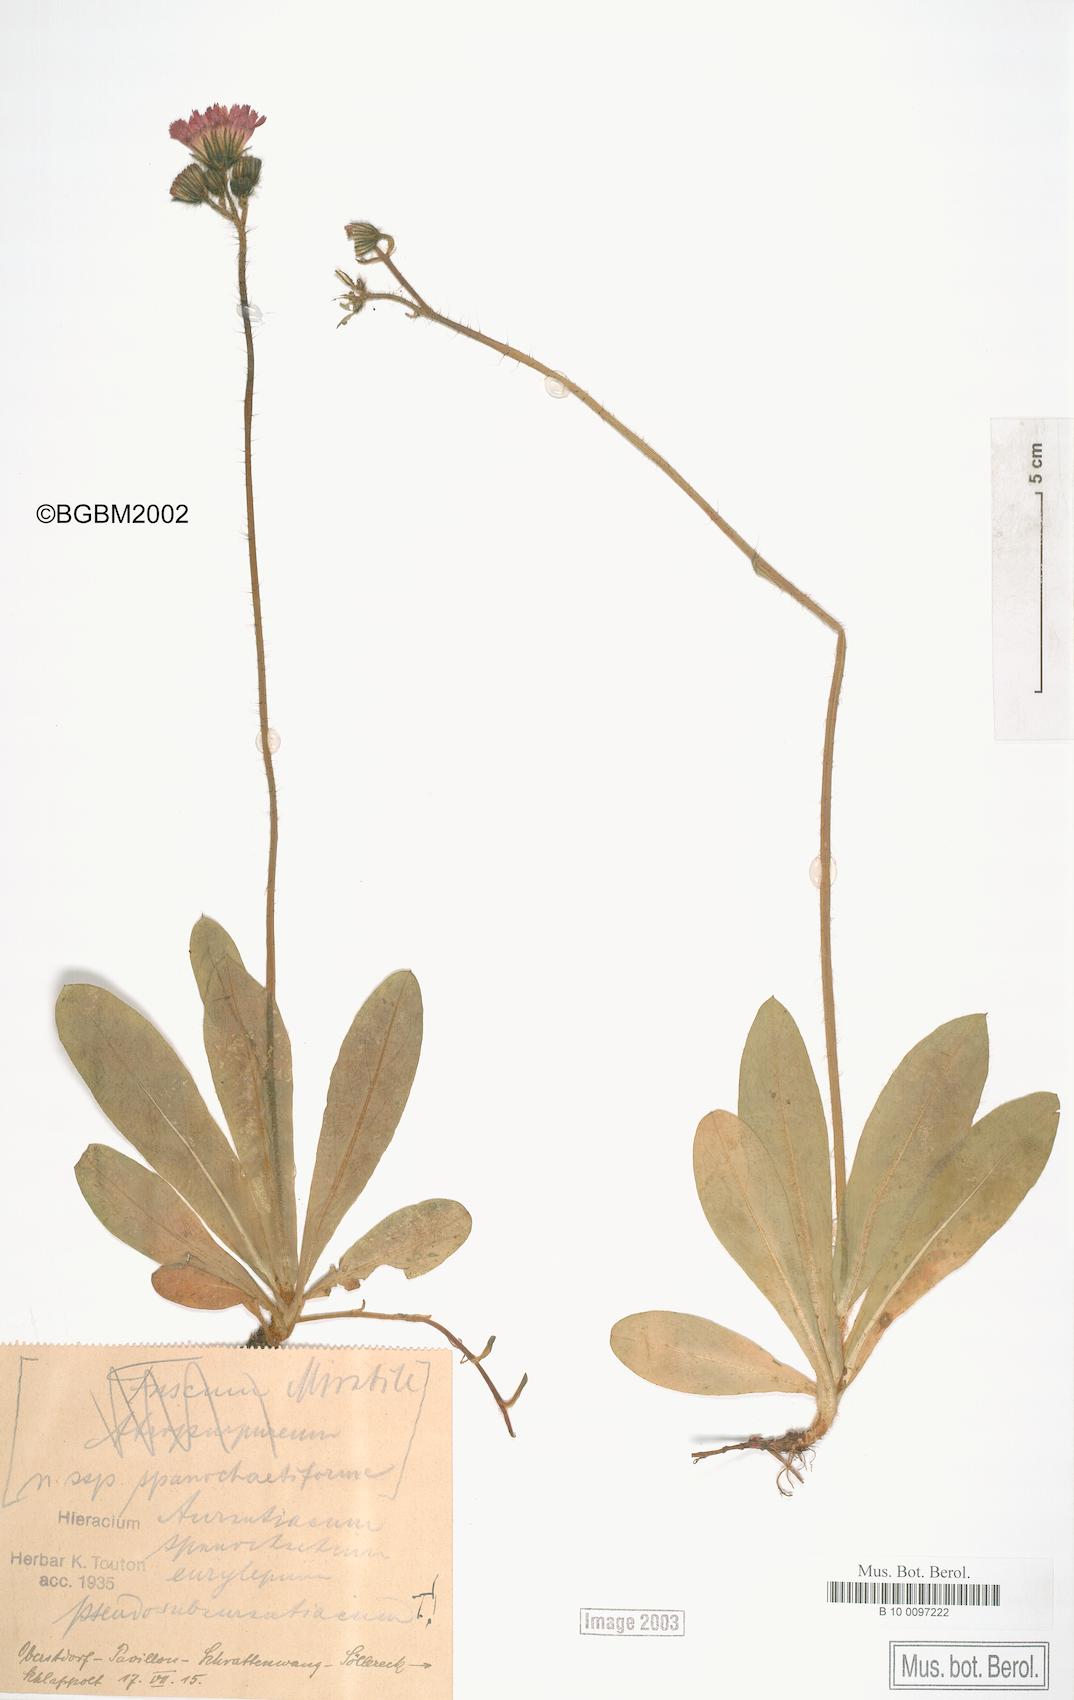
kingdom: Plantae
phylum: Tracheophyta
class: Magnoliopsida
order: Asterales
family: Asteraceae
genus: Pilosella
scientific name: Pilosella aurantiaca
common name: Fox-and-cubs
